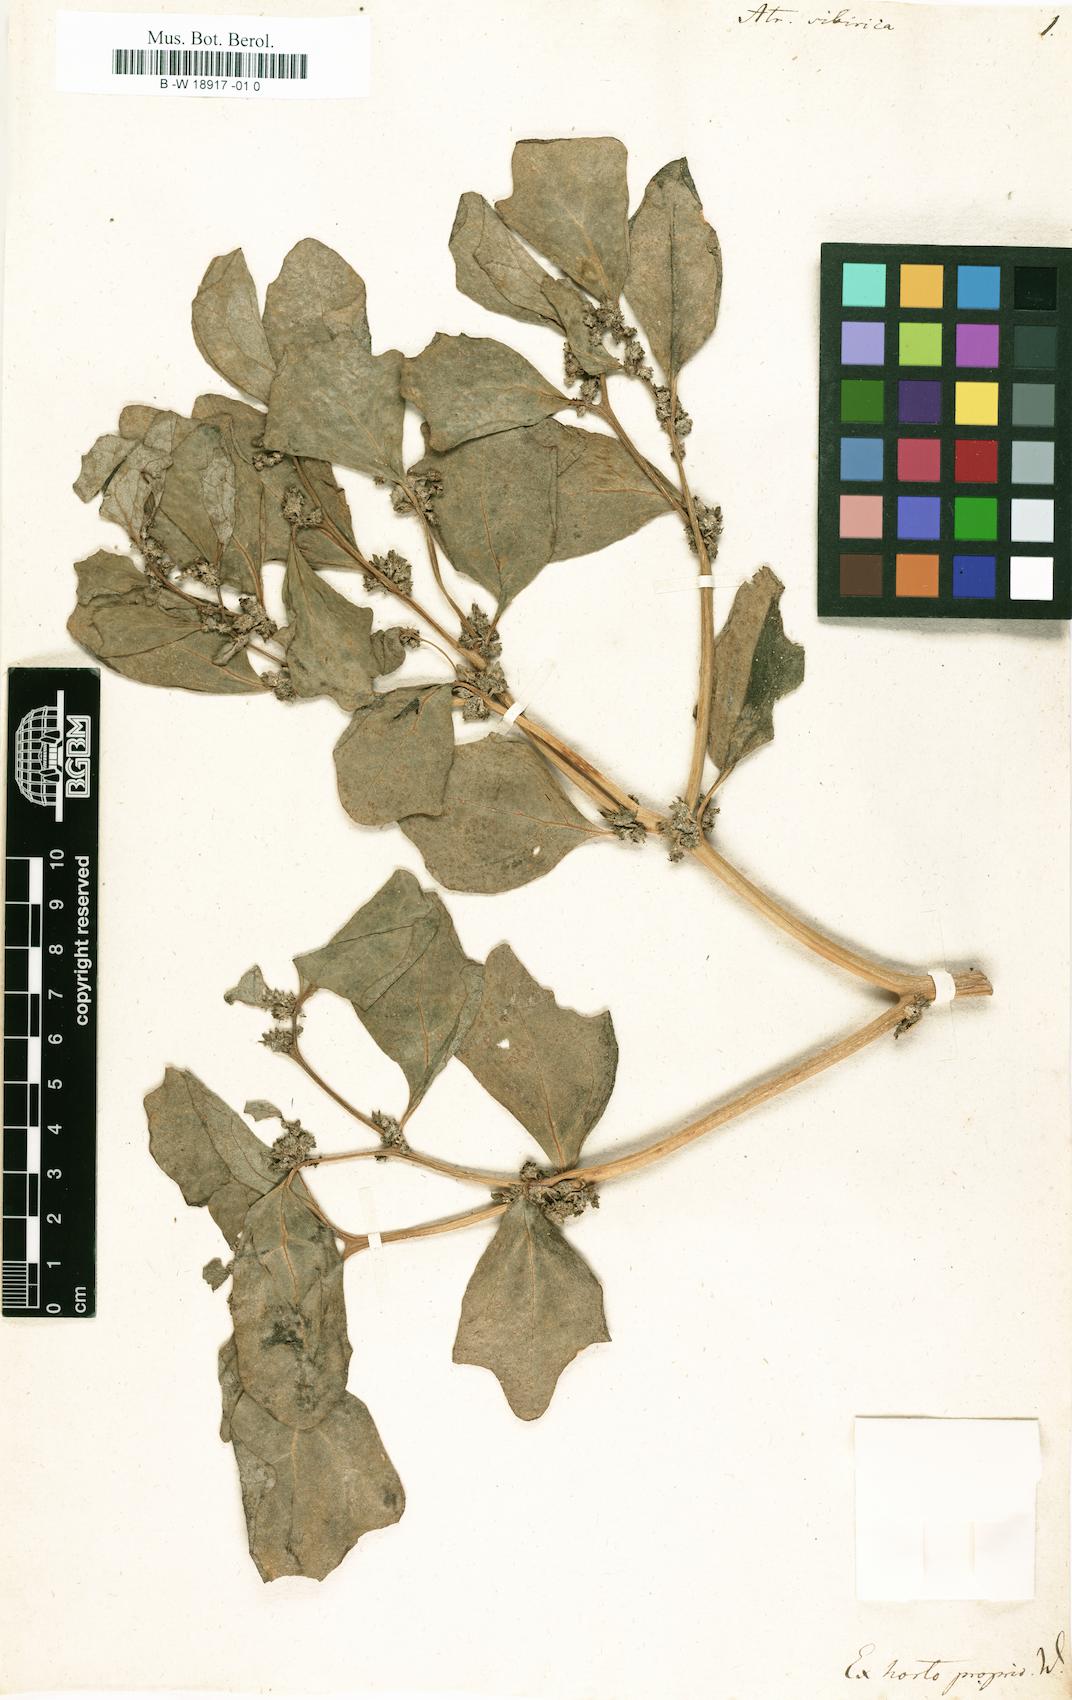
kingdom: Plantae
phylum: Tracheophyta
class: Magnoliopsida
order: Caryophyllales
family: Amaranthaceae
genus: Atriplex
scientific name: Atriplex sibirica
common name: Siberian saltbush
